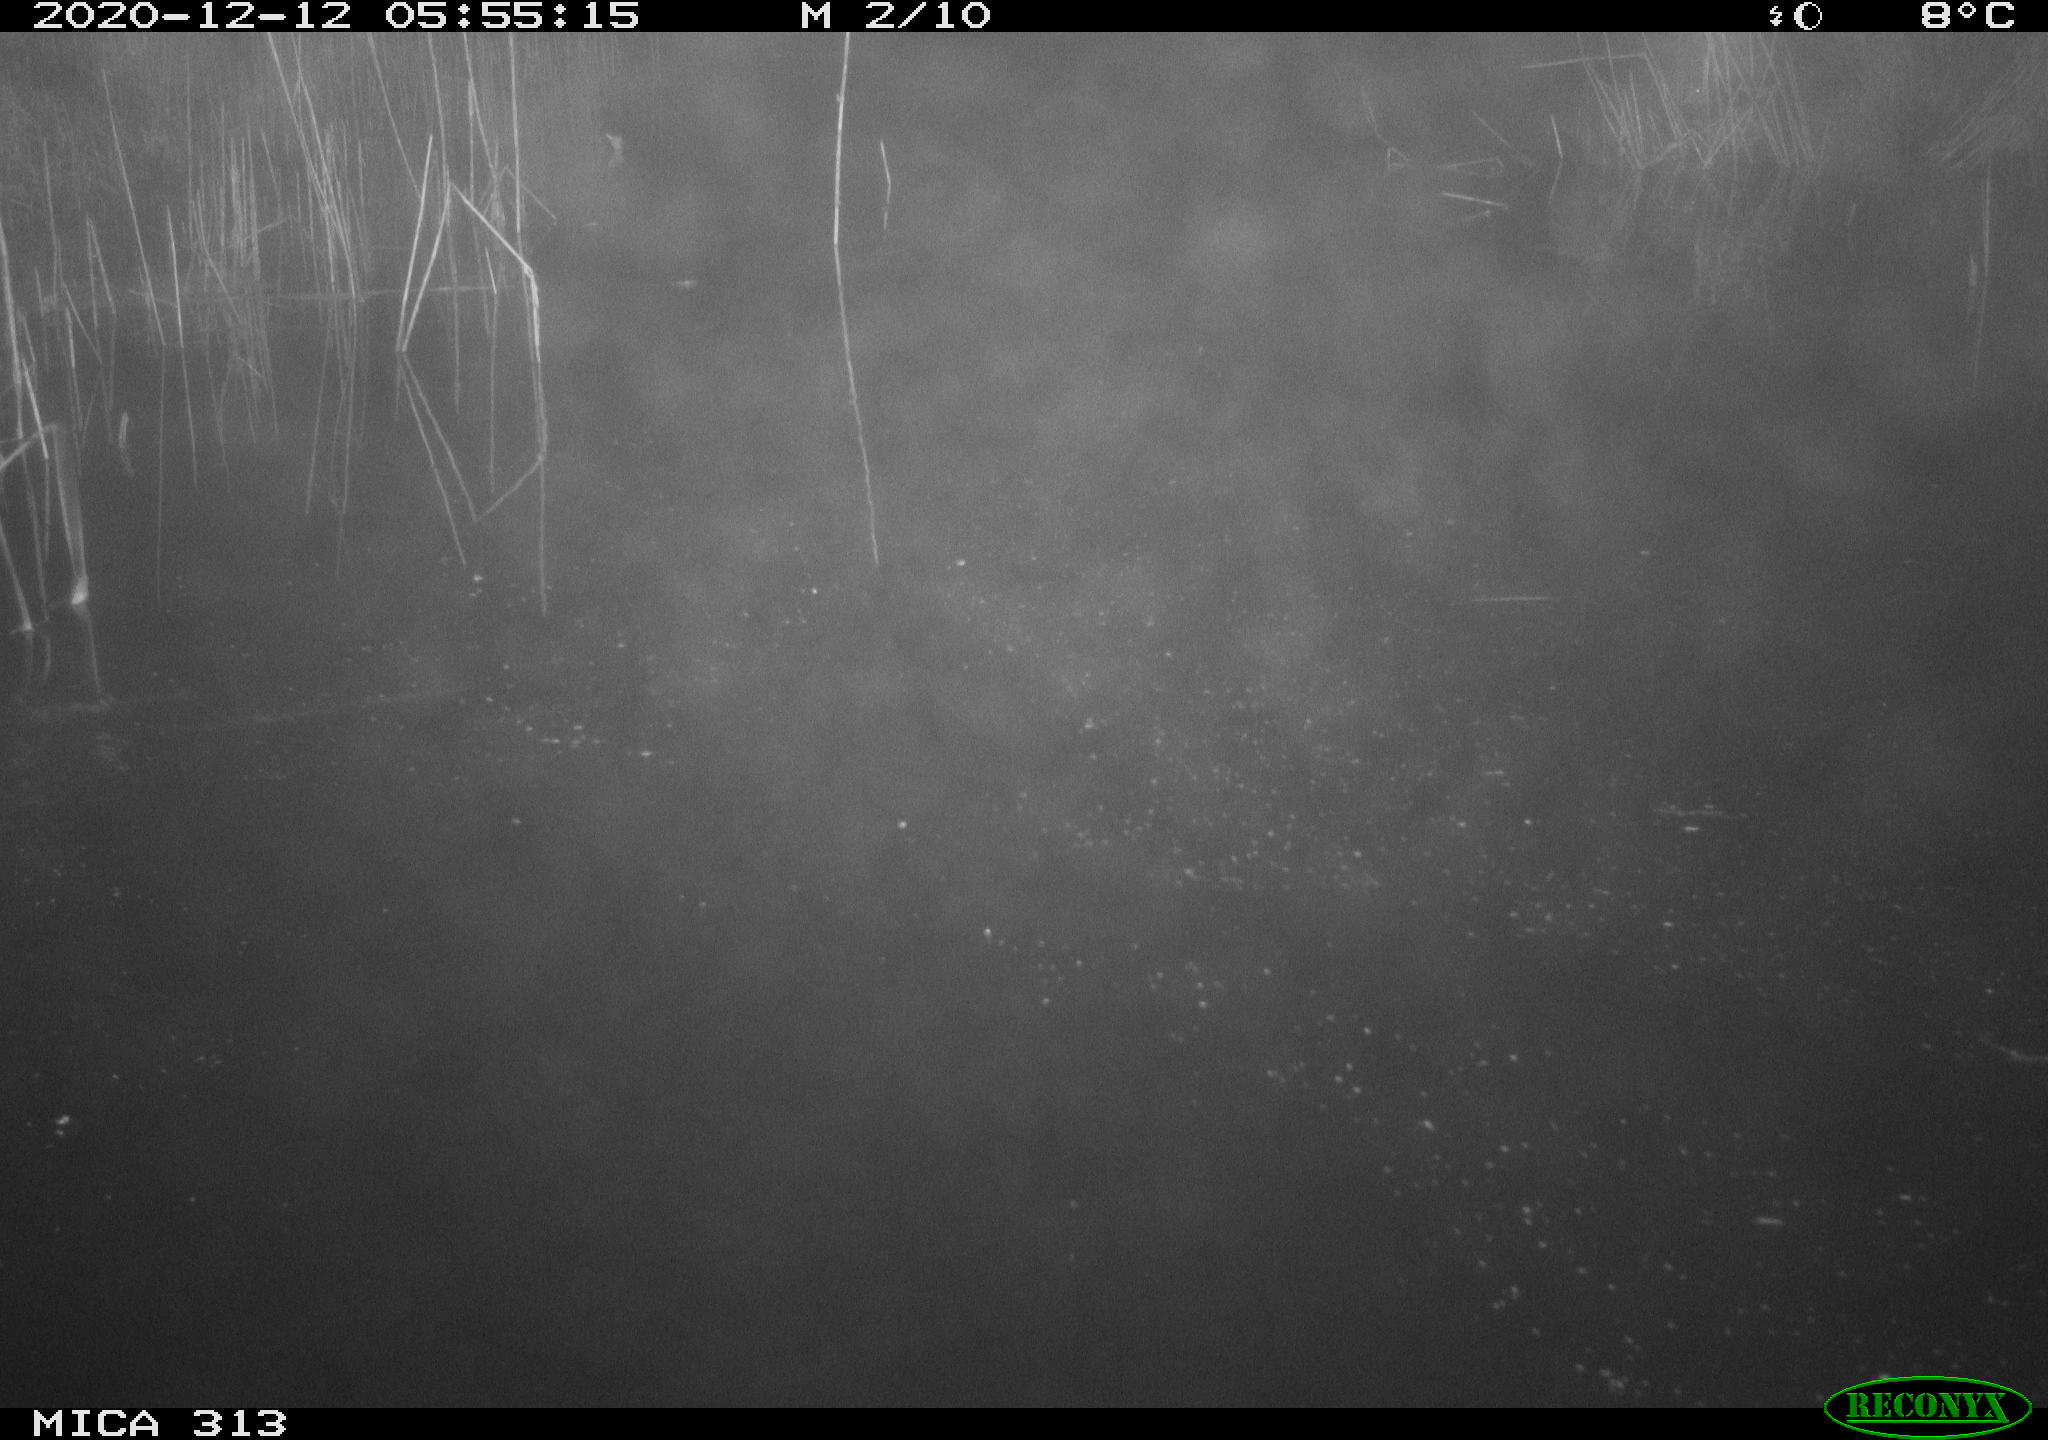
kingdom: Animalia
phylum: Chordata
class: Mammalia
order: Rodentia
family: Muridae
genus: Rattus
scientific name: Rattus norvegicus
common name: Brown rat
